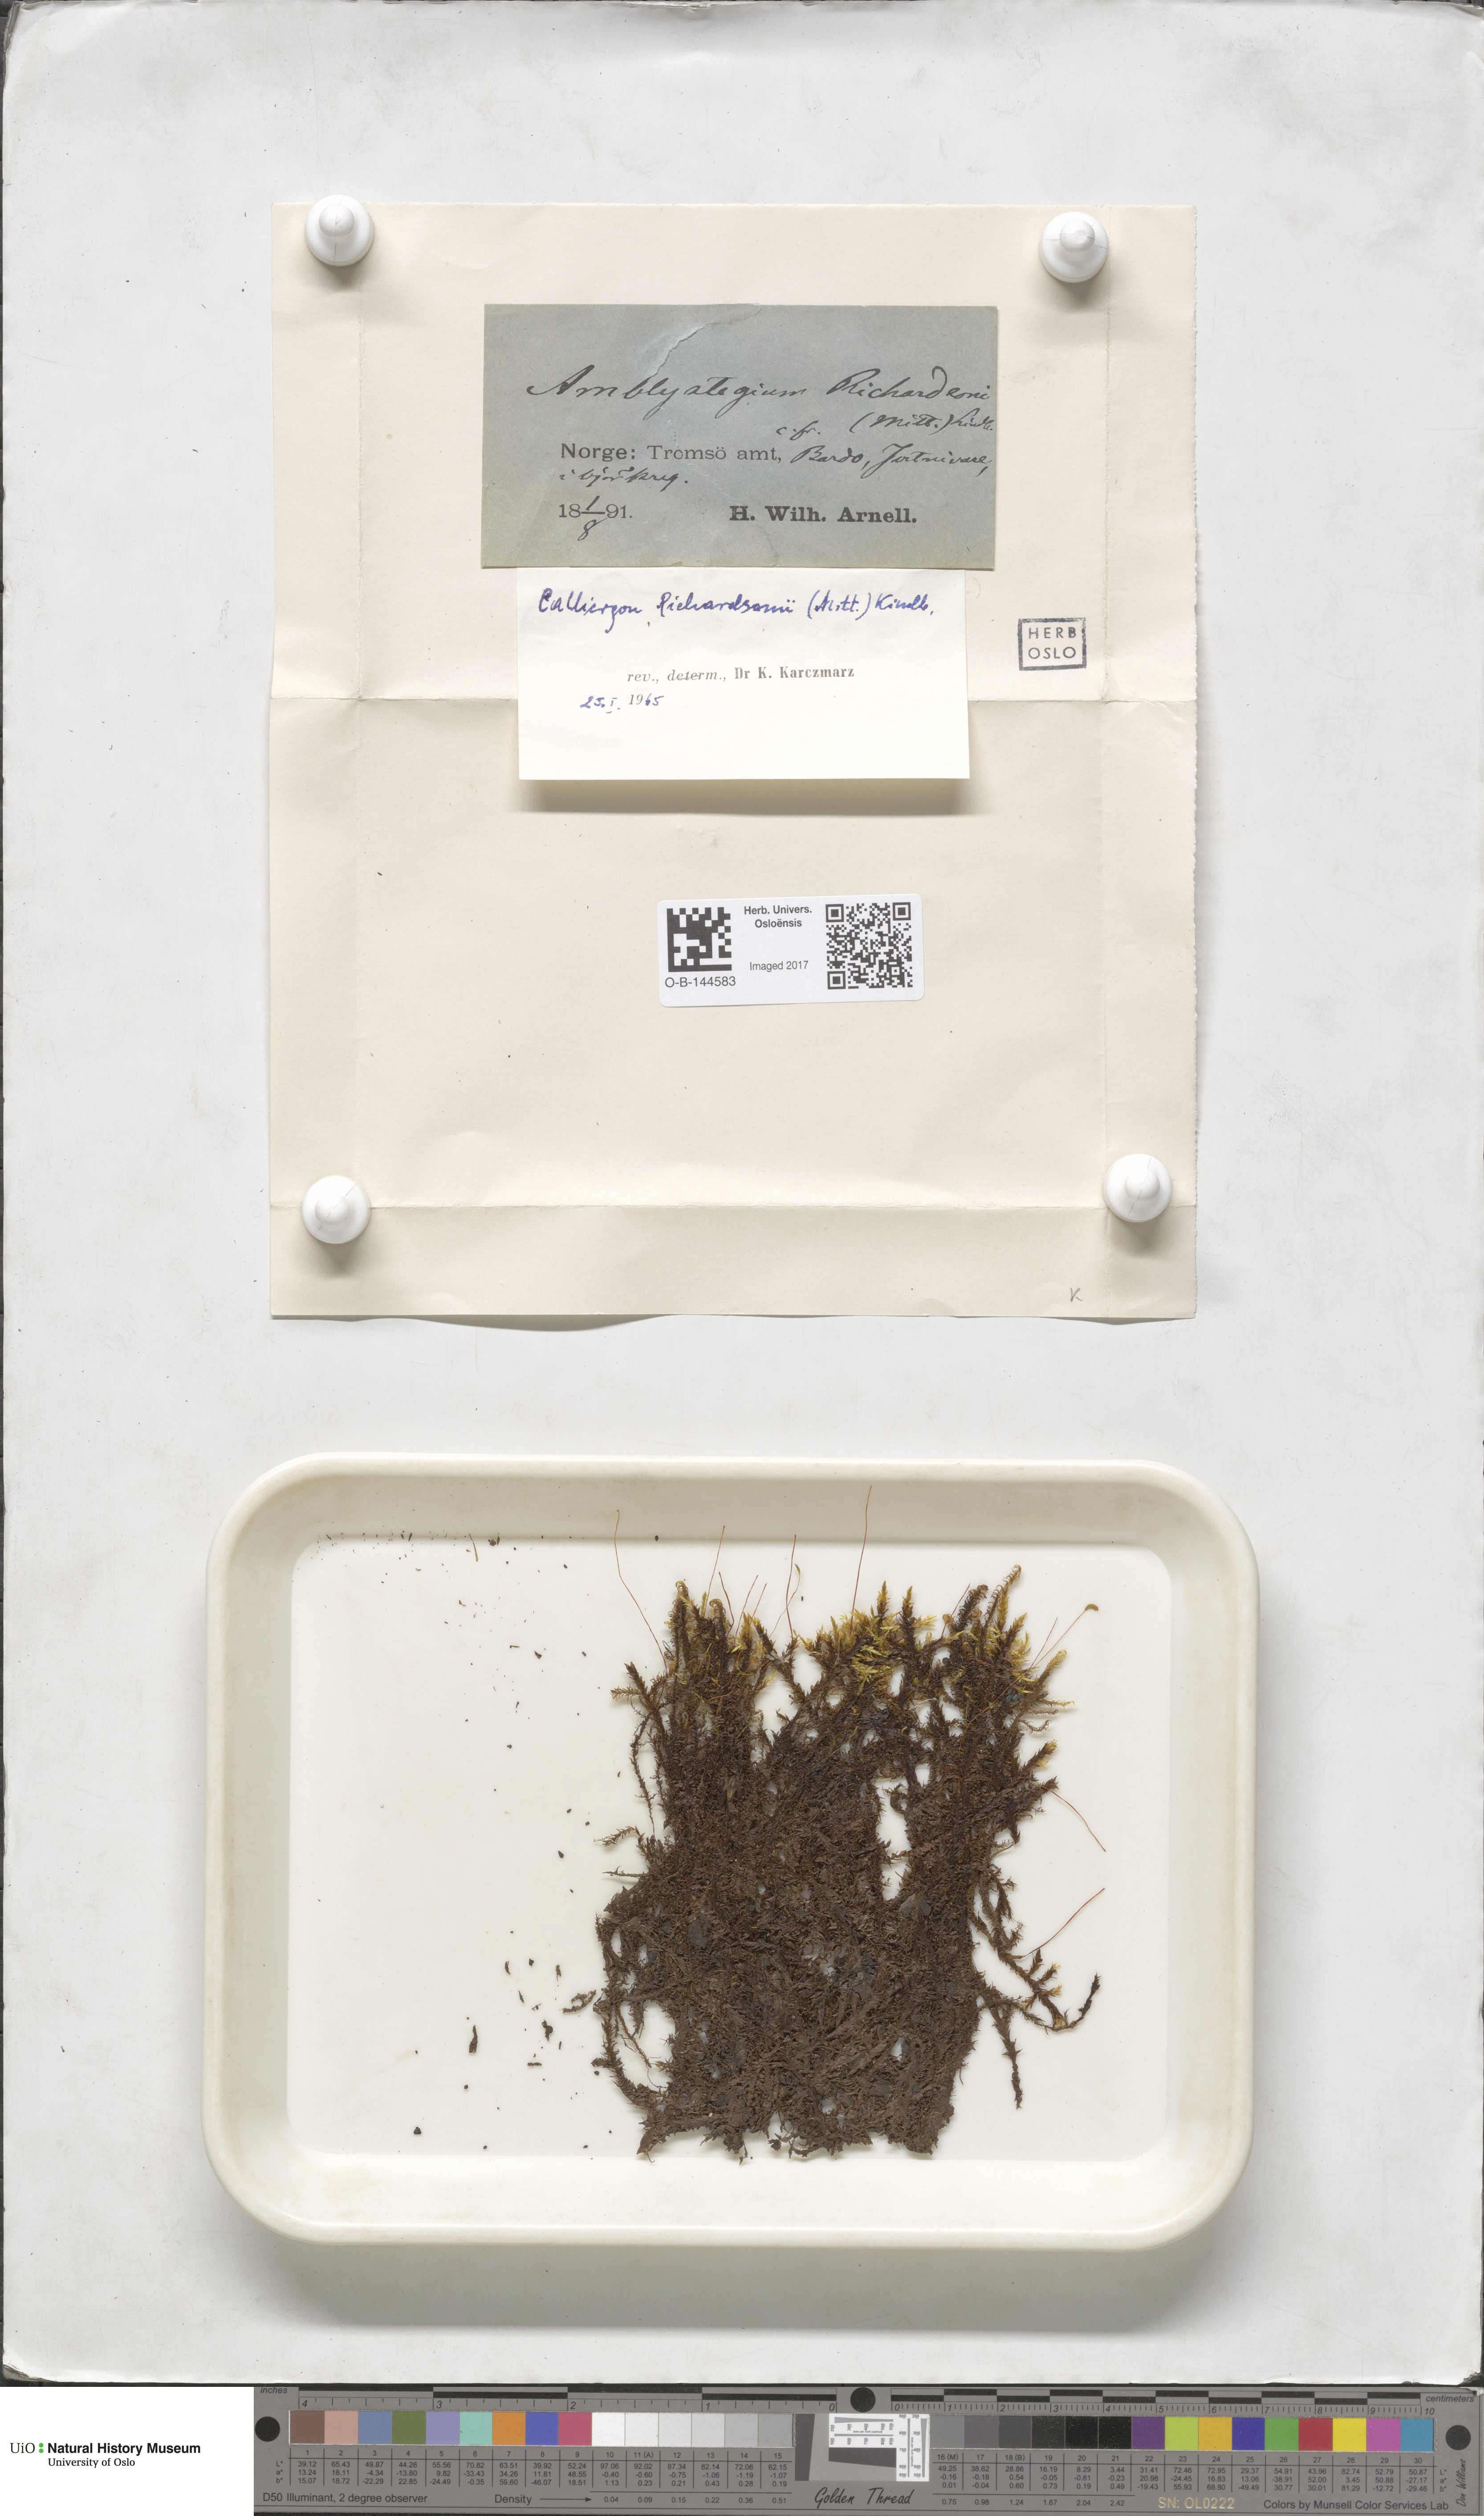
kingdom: Plantae
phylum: Bryophyta
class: Bryopsida
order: Hypnales
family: Calliergonaceae
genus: Calliergon
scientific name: Calliergon richardsonii
